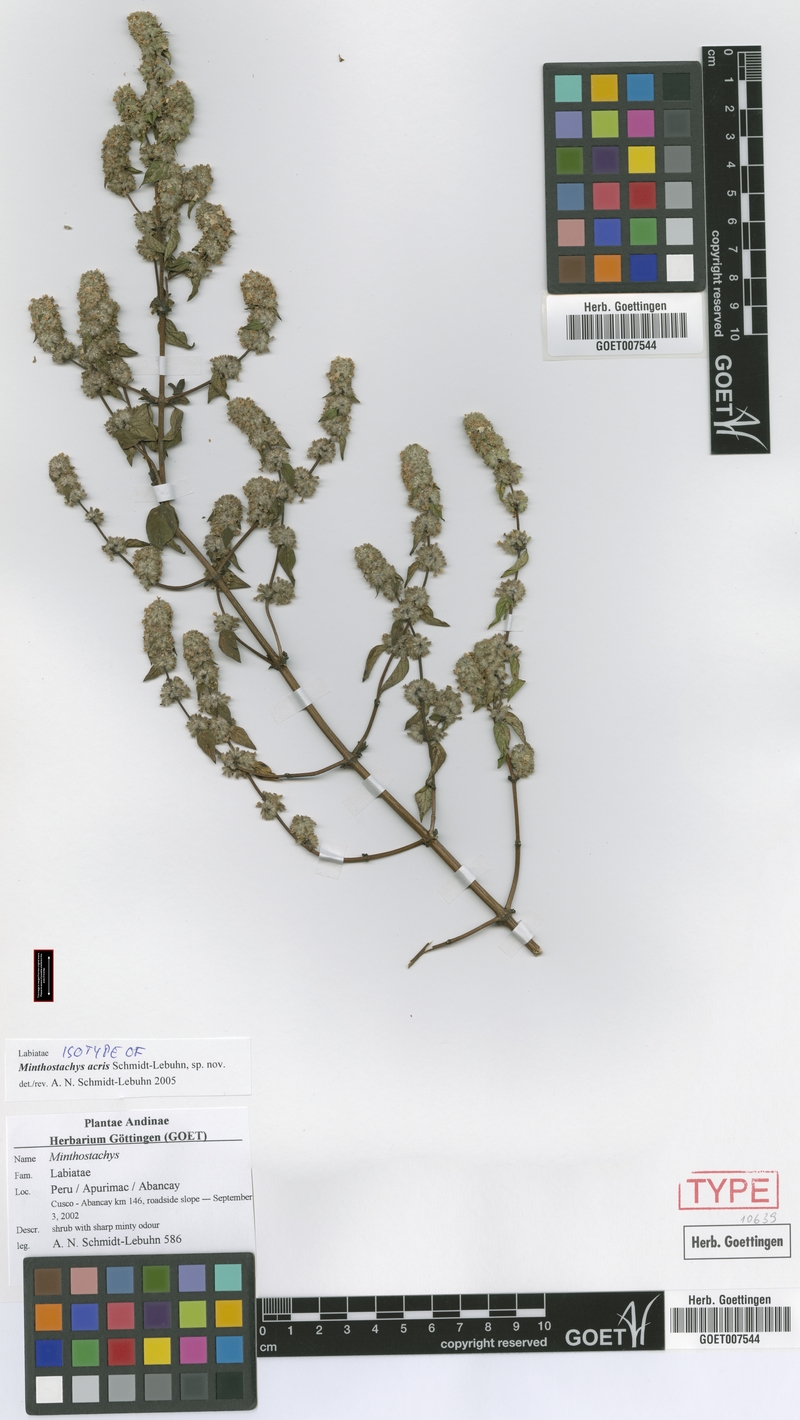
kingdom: Plantae
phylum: Tracheophyta
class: Magnoliopsida
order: Lamiales
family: Lamiaceae
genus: Minthostachys
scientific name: Minthostachys acris
